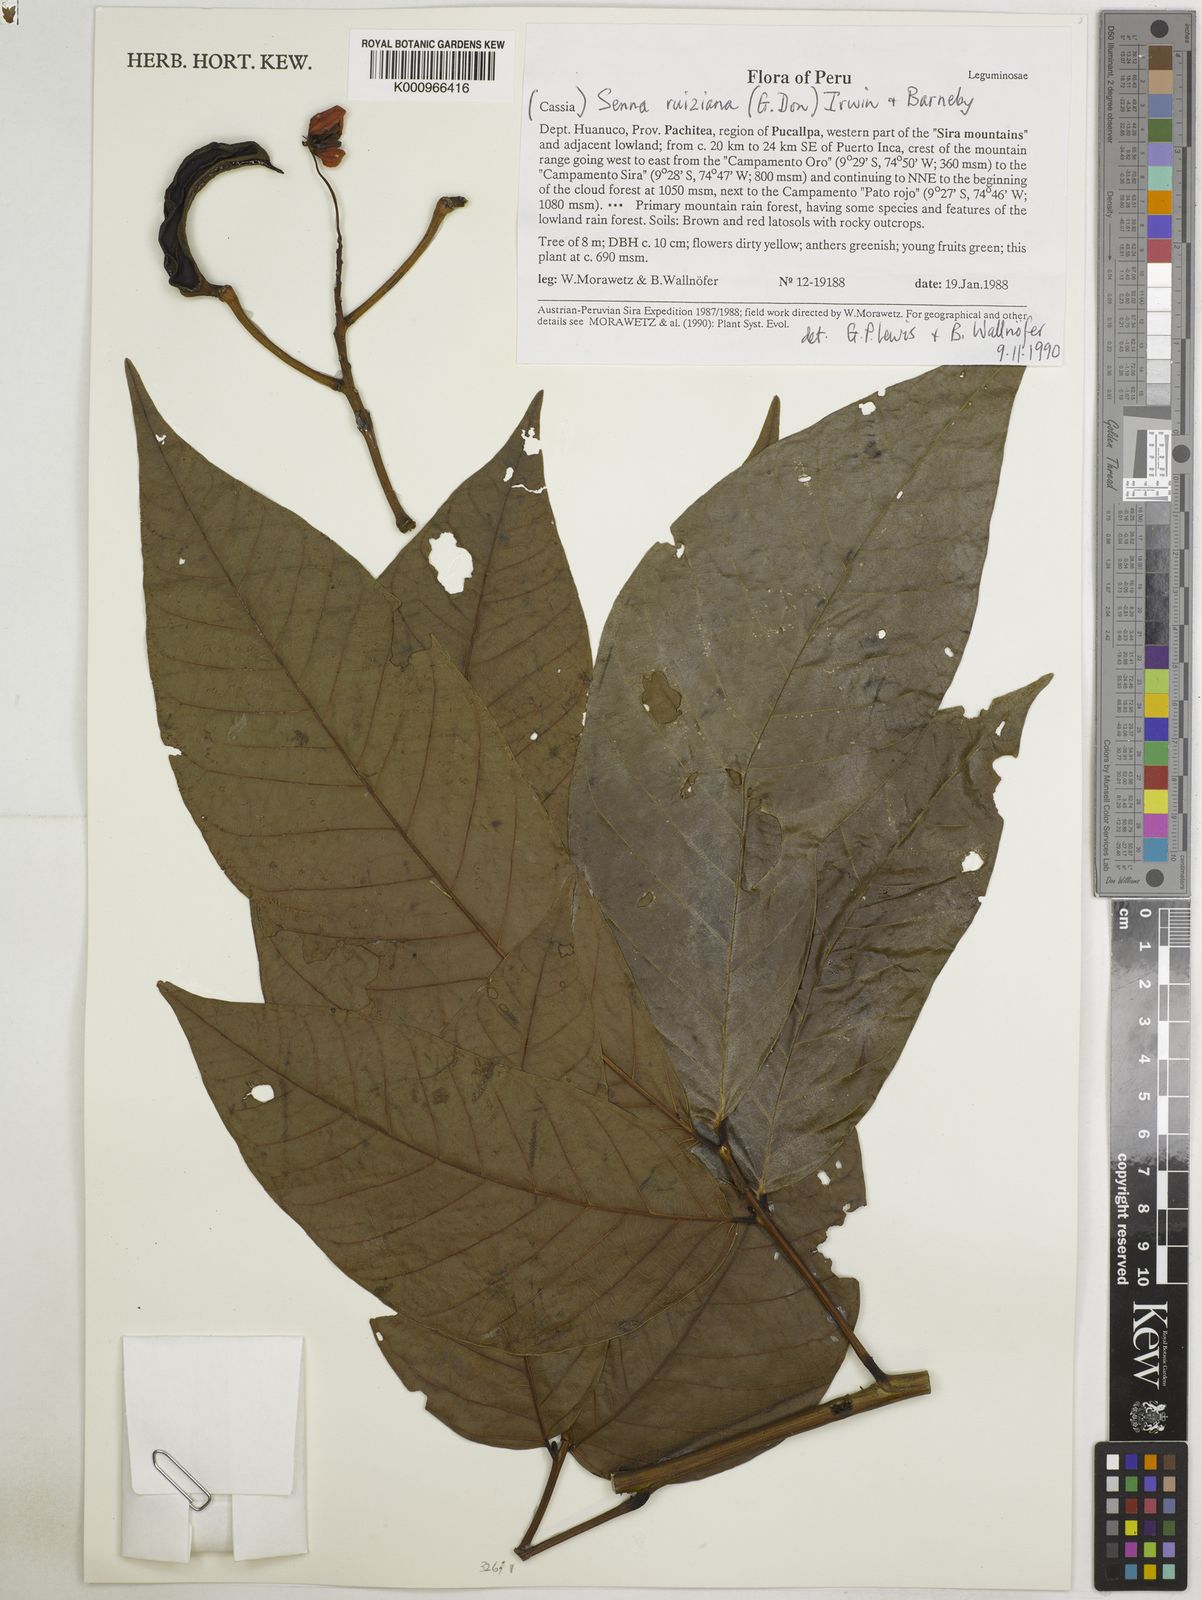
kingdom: Plantae
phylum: Tracheophyta
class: Magnoliopsida
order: Fabales
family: Fabaceae
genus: Senna
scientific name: Senna ruiziana
